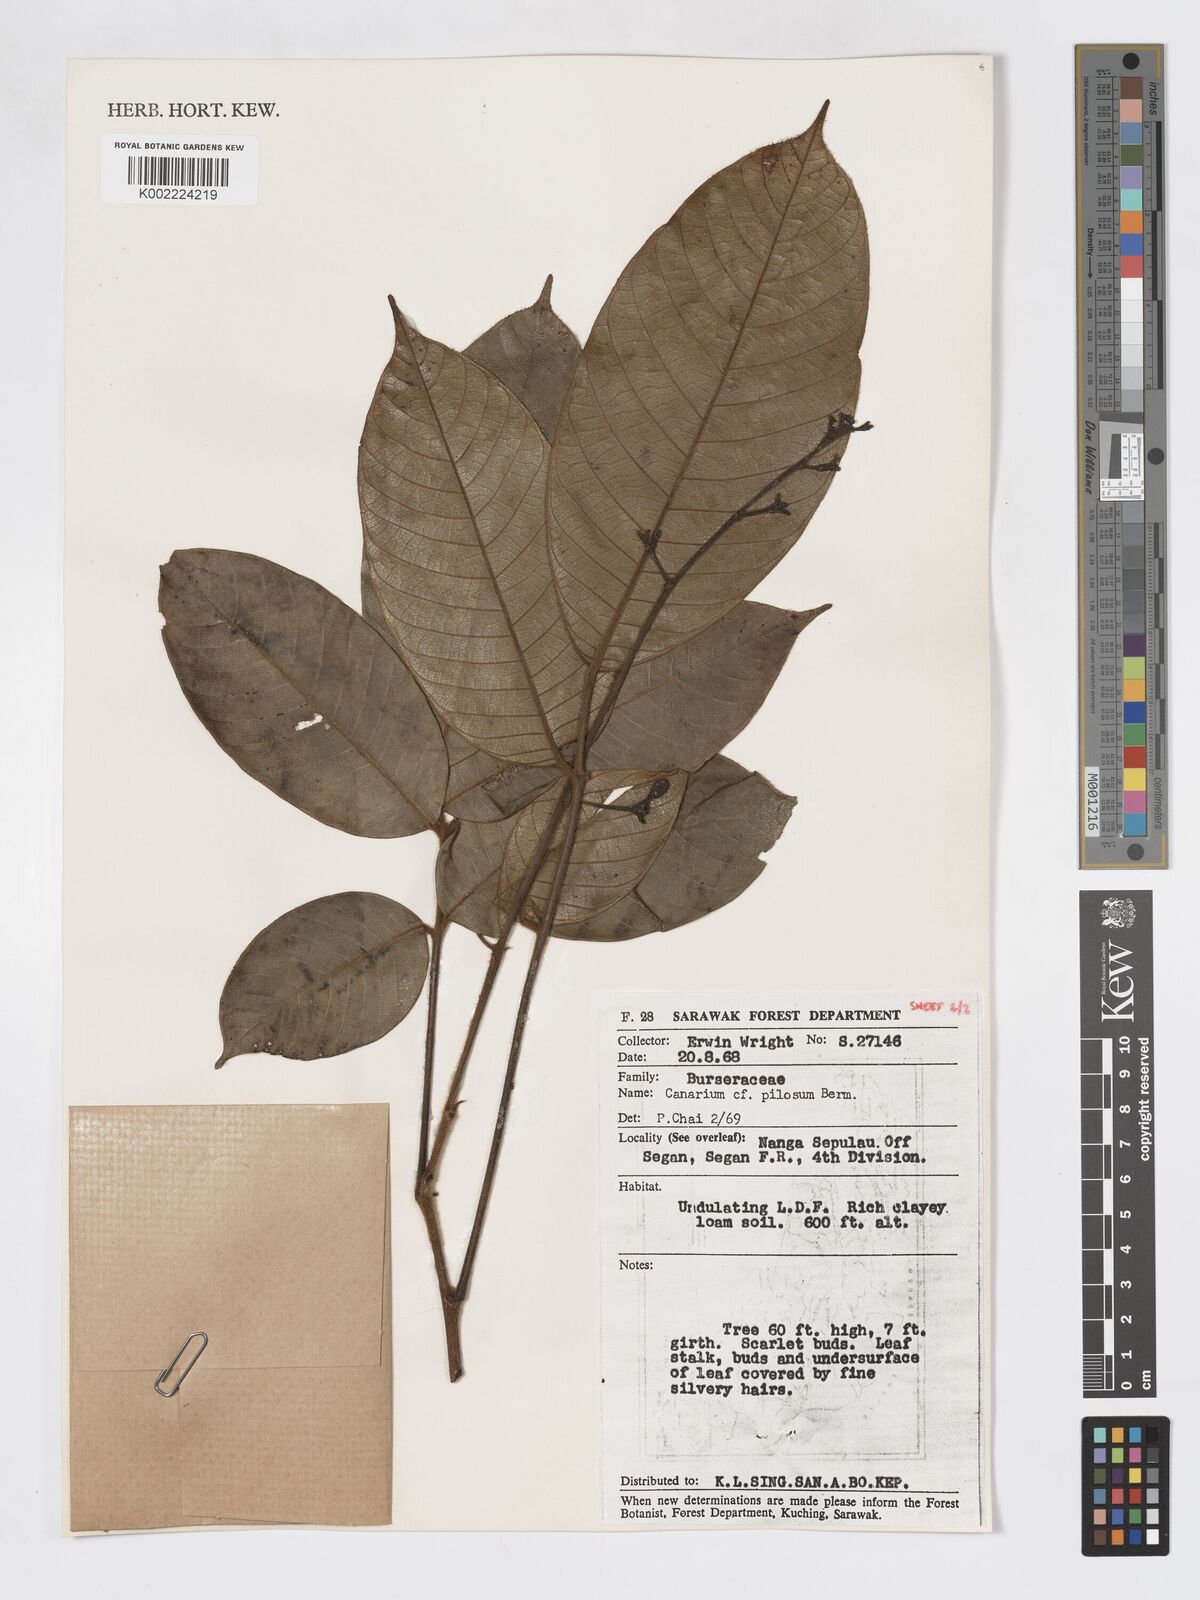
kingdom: Plantae
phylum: Tracheophyta
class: Magnoliopsida
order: Sapindales
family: Burseraceae
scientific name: Burseraceae
